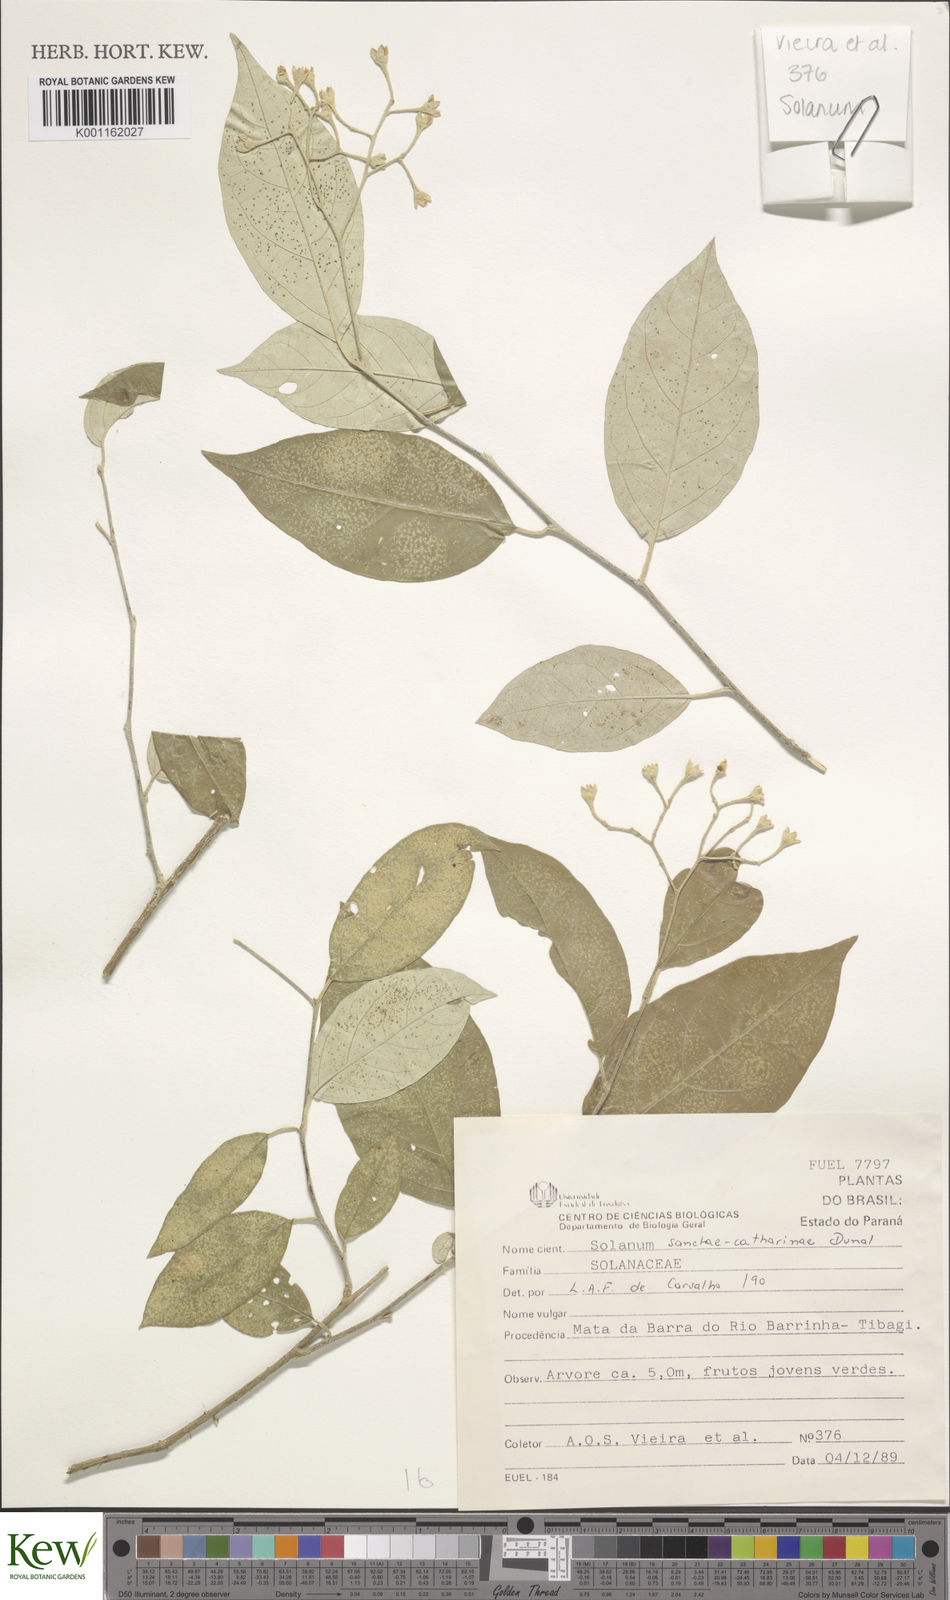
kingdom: Plantae
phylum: Tracheophyta
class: Magnoliopsida
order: Solanales
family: Solanaceae
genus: Solanum
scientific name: Solanum sanctae-catharinae
